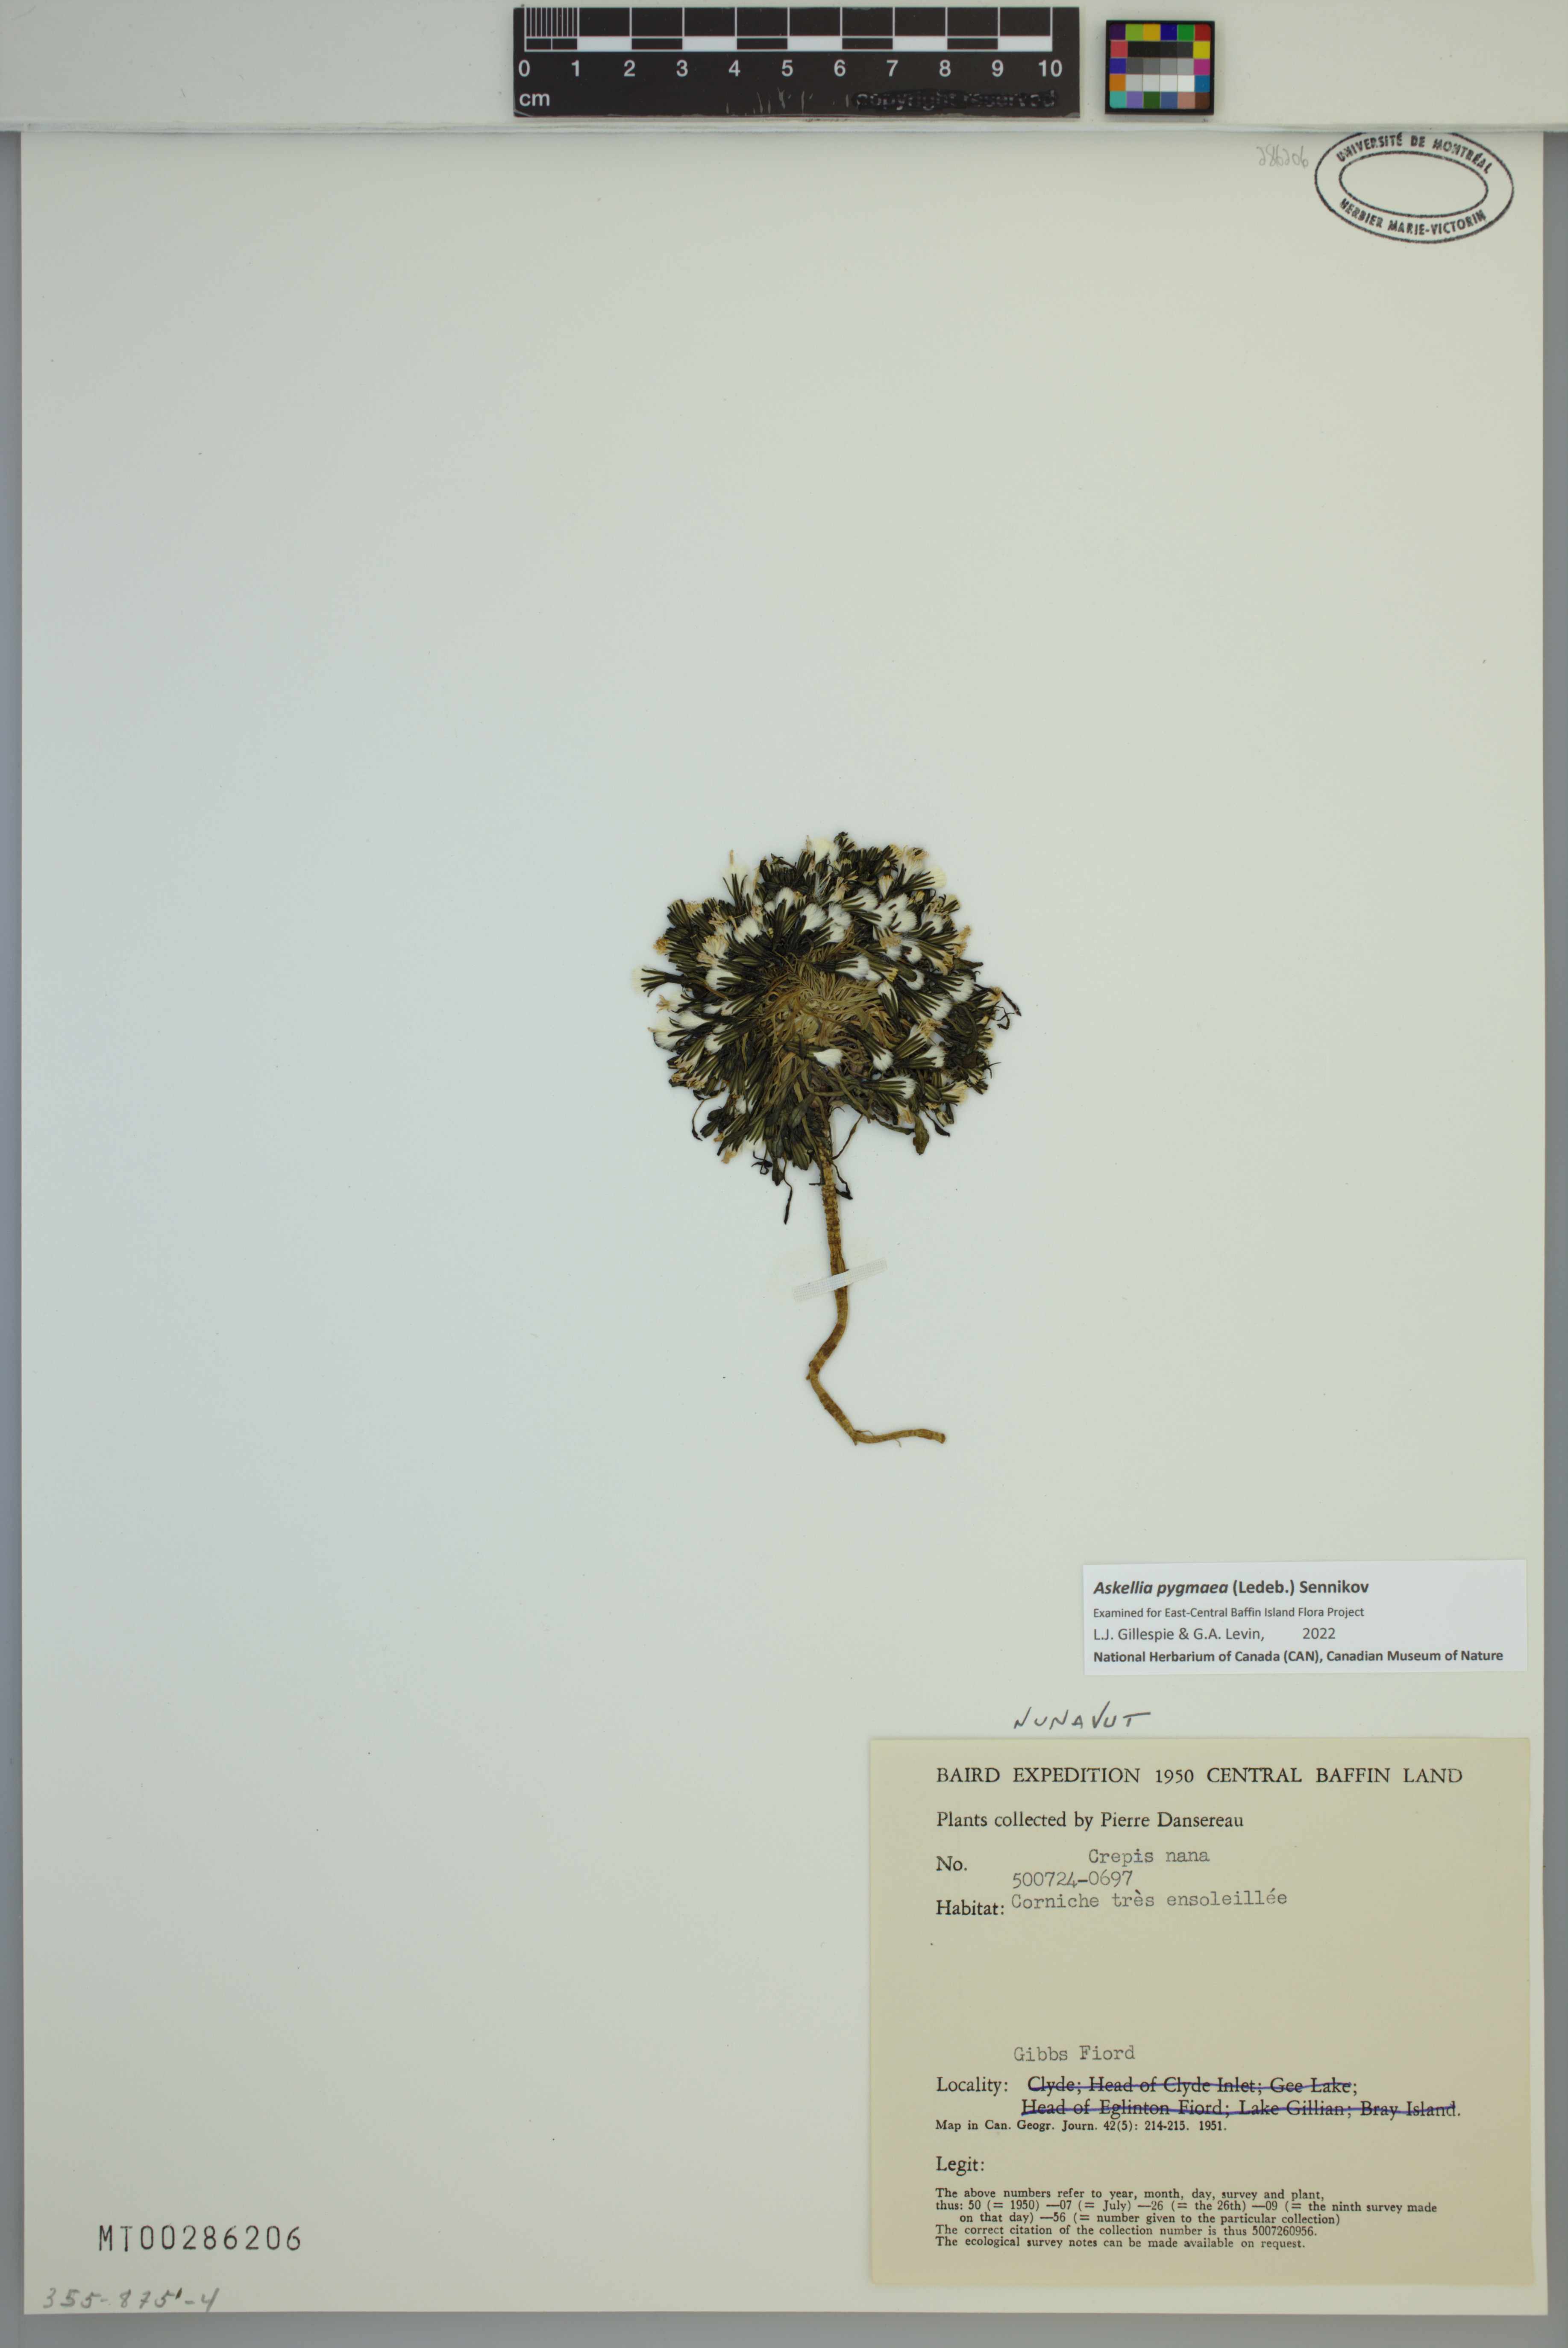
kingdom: Plantae
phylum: Tracheophyta
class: Magnoliopsida
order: Asterales
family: Asteraceae
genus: Askellia
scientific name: Askellia pygmaea
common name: Dwarf alpine hawksbeard
